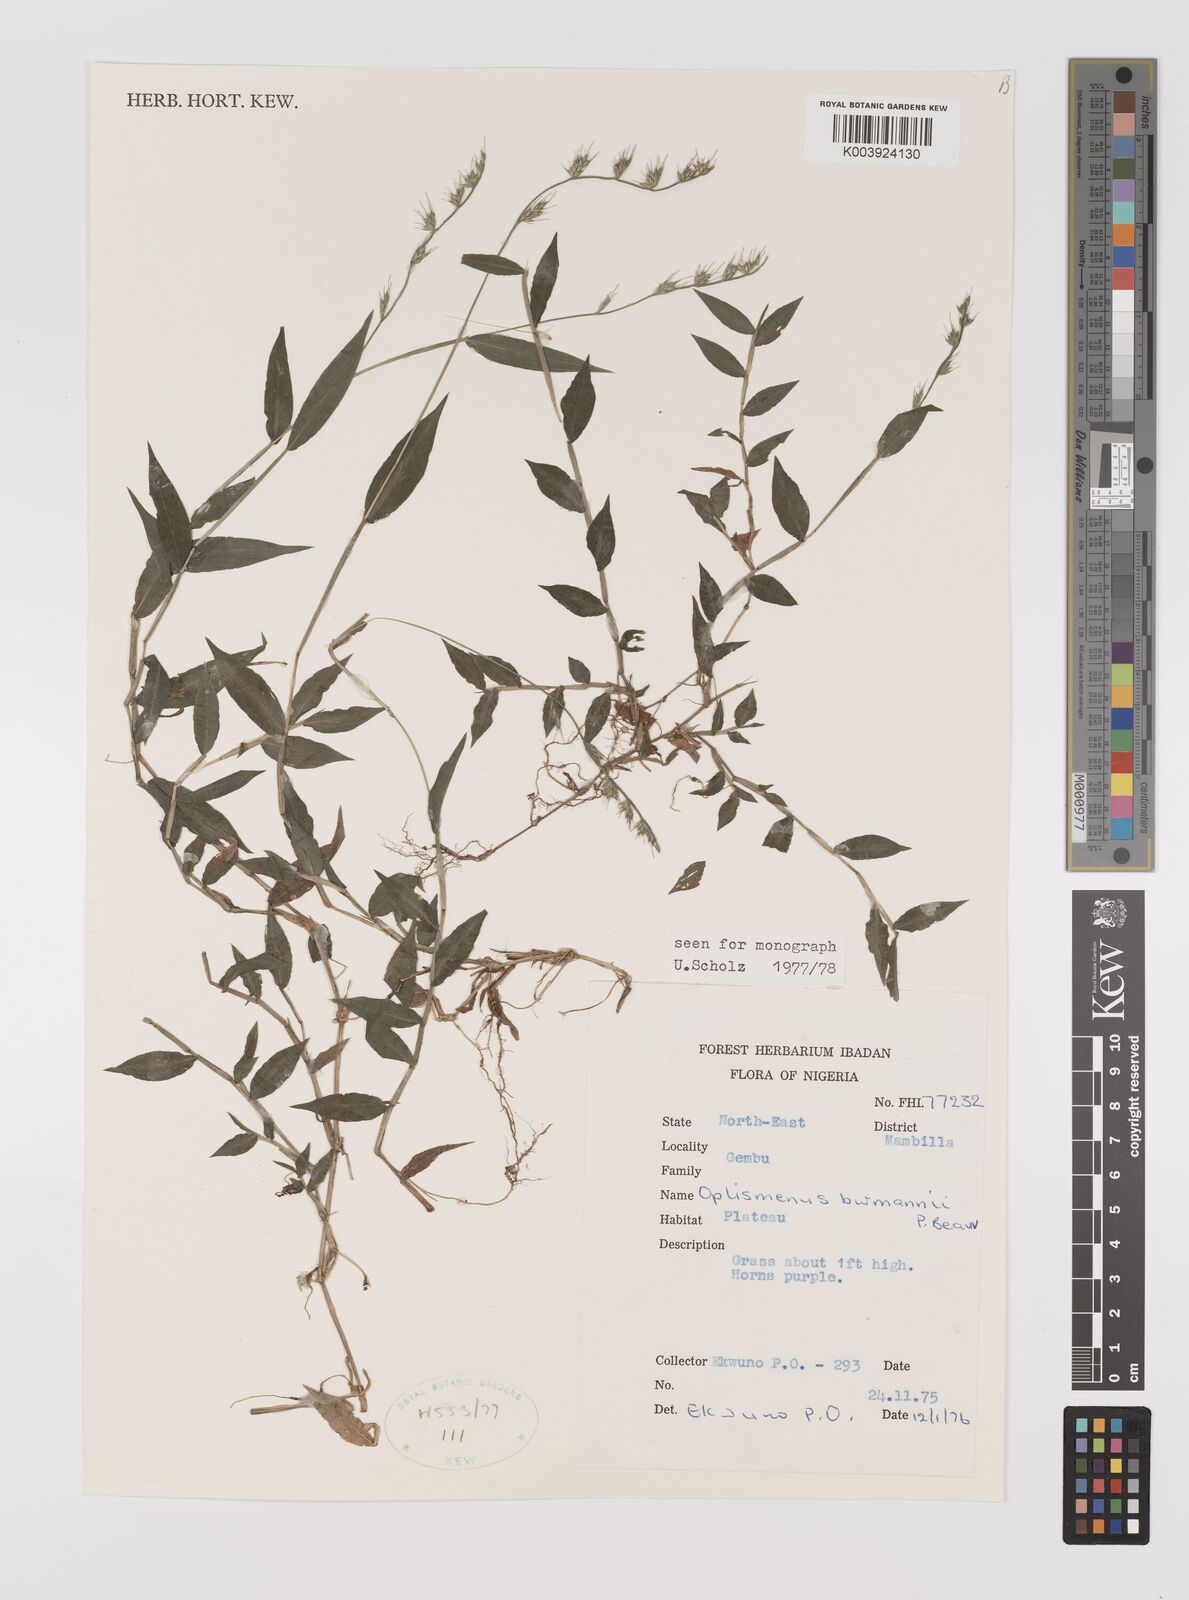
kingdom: Plantae
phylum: Tracheophyta
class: Liliopsida
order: Poales
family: Poaceae
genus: Oplismenus
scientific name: Oplismenus burmanni
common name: Burmann's basketgrass
